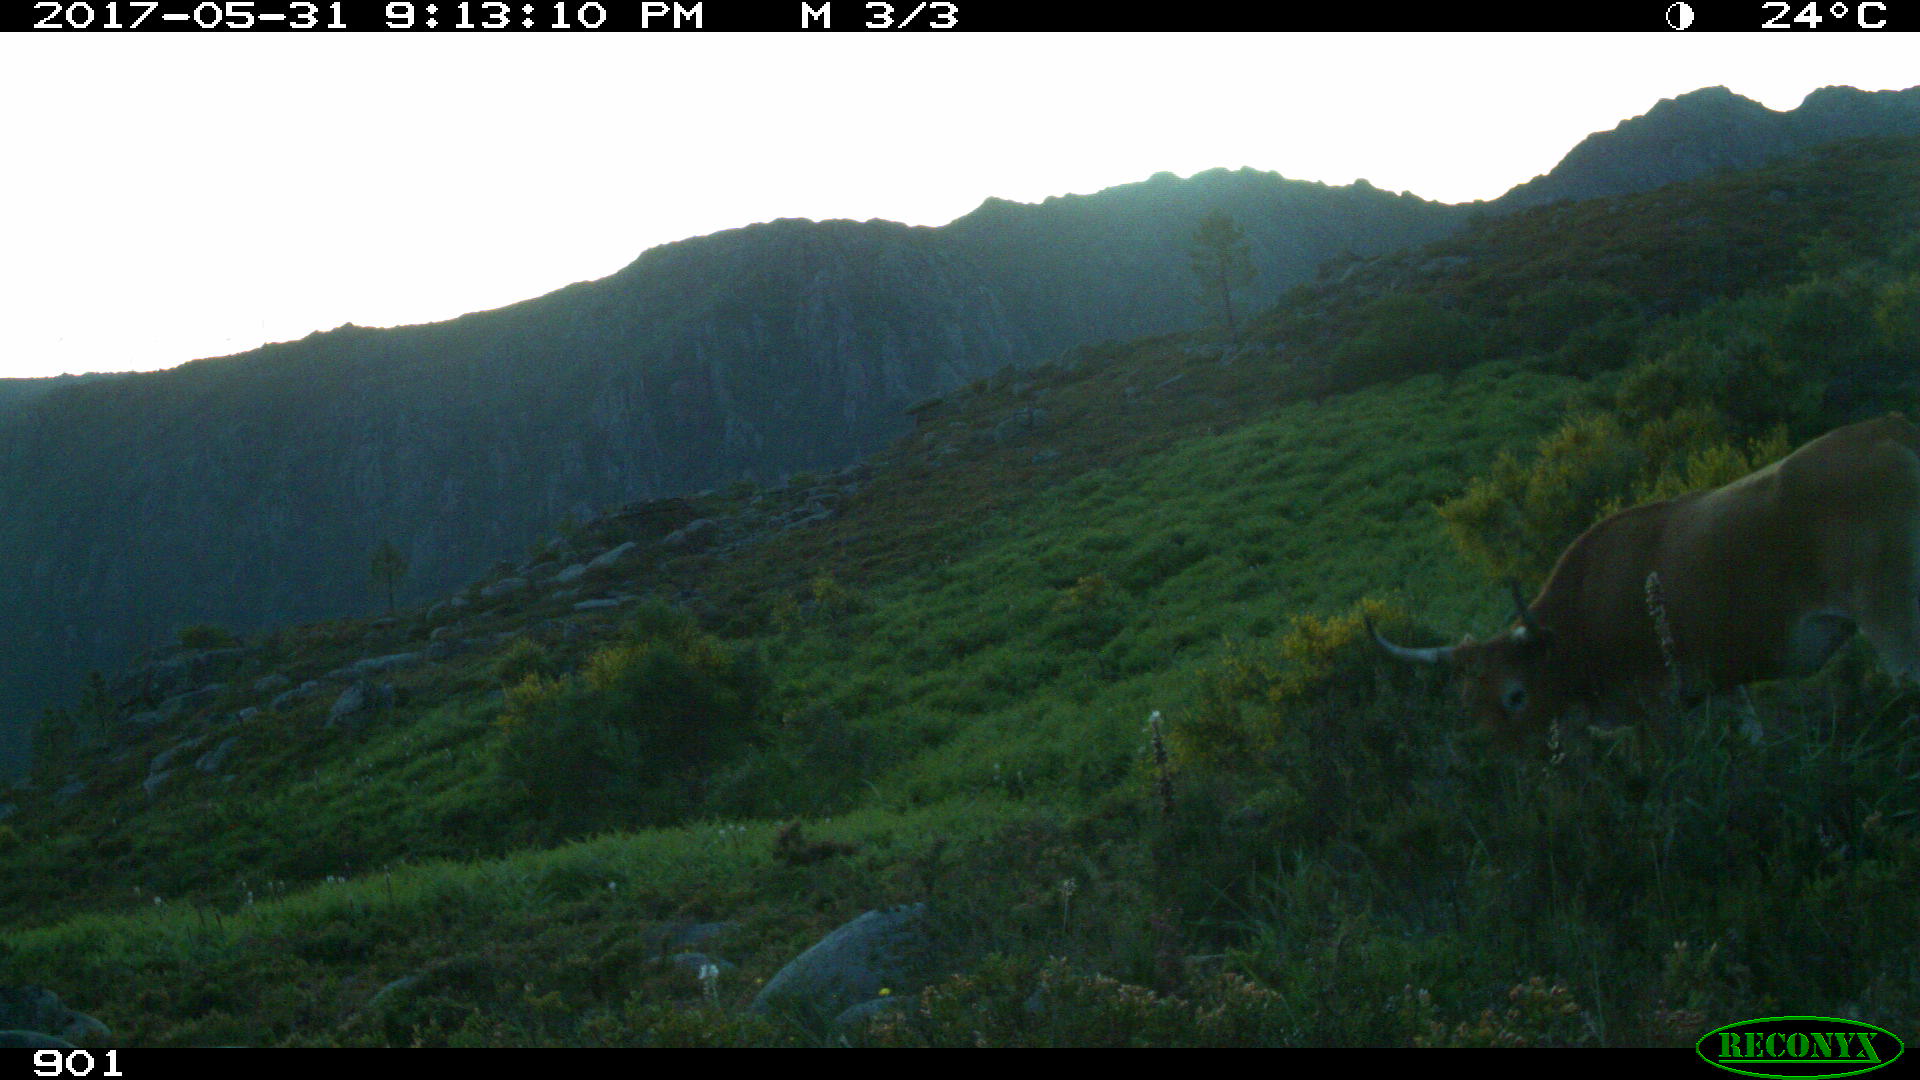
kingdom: Animalia
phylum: Chordata
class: Mammalia
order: Artiodactyla
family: Bovidae
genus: Bos
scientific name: Bos taurus
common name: Domesticated cattle
